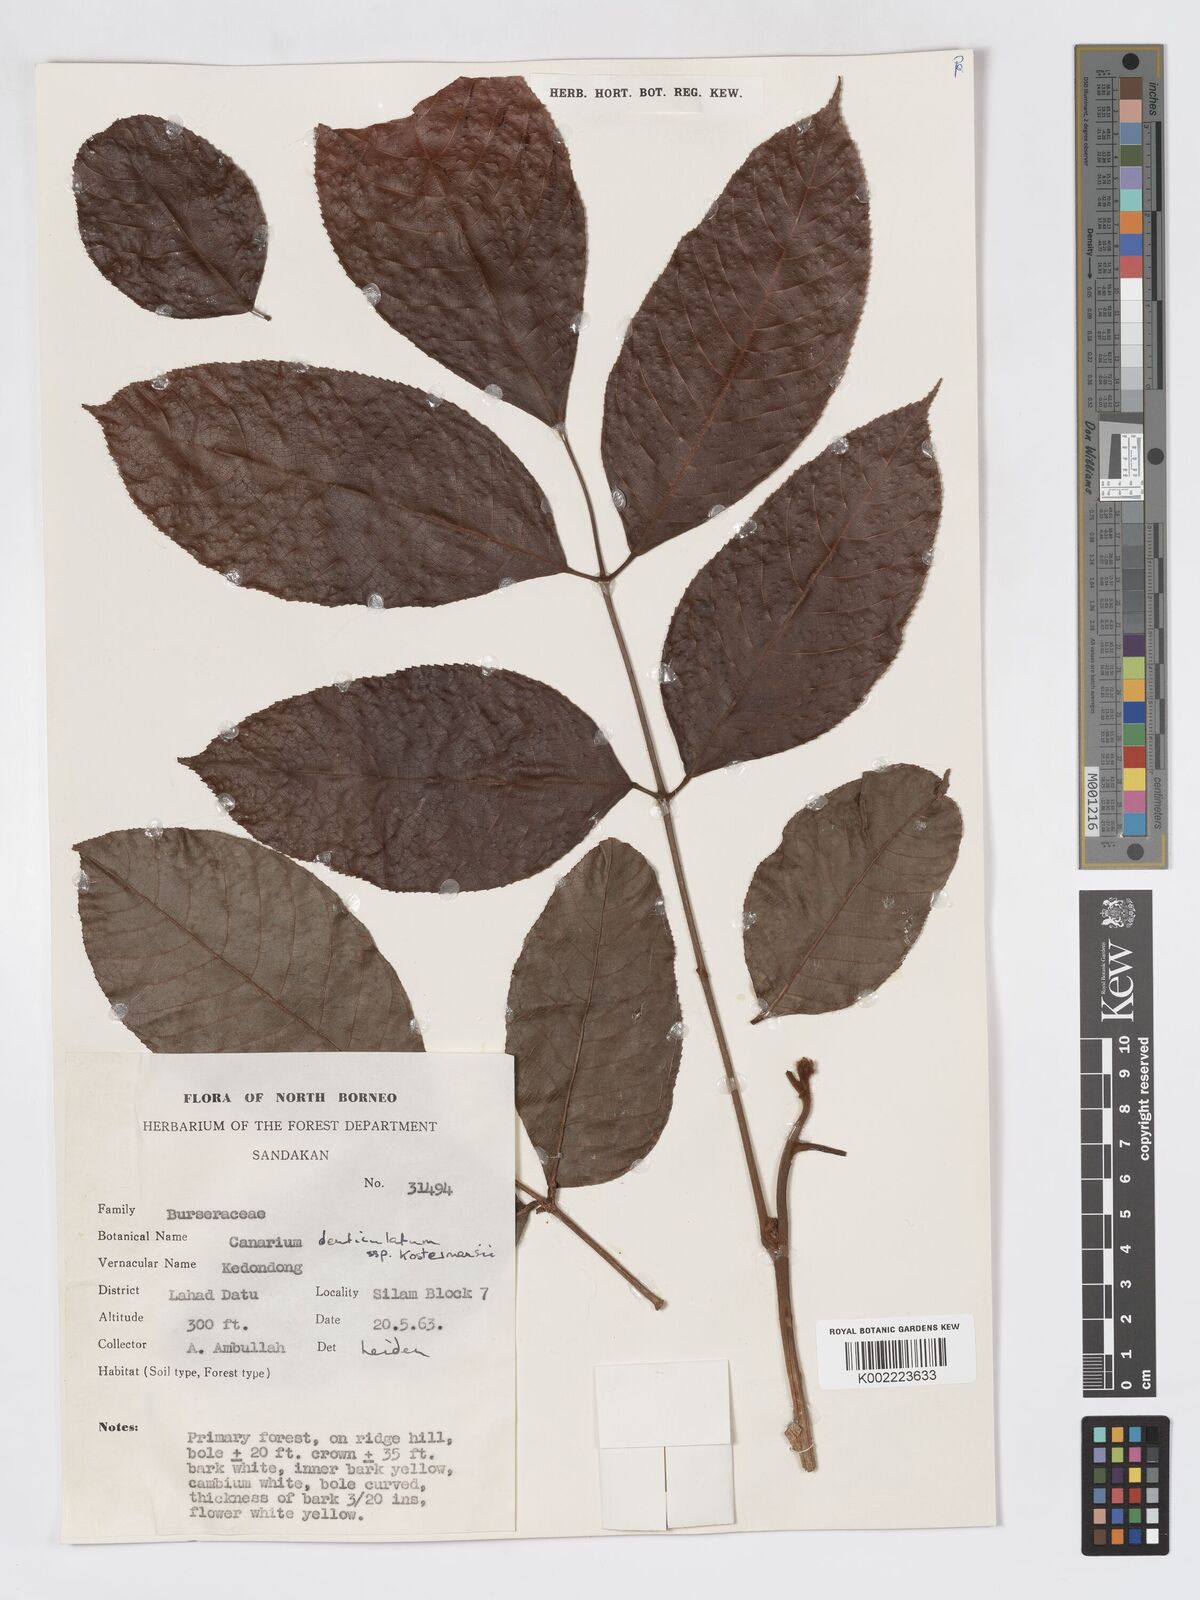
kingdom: Plantae
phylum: Tracheophyta
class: Magnoliopsida
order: Sapindales
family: Burseraceae
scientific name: Burseraceae
